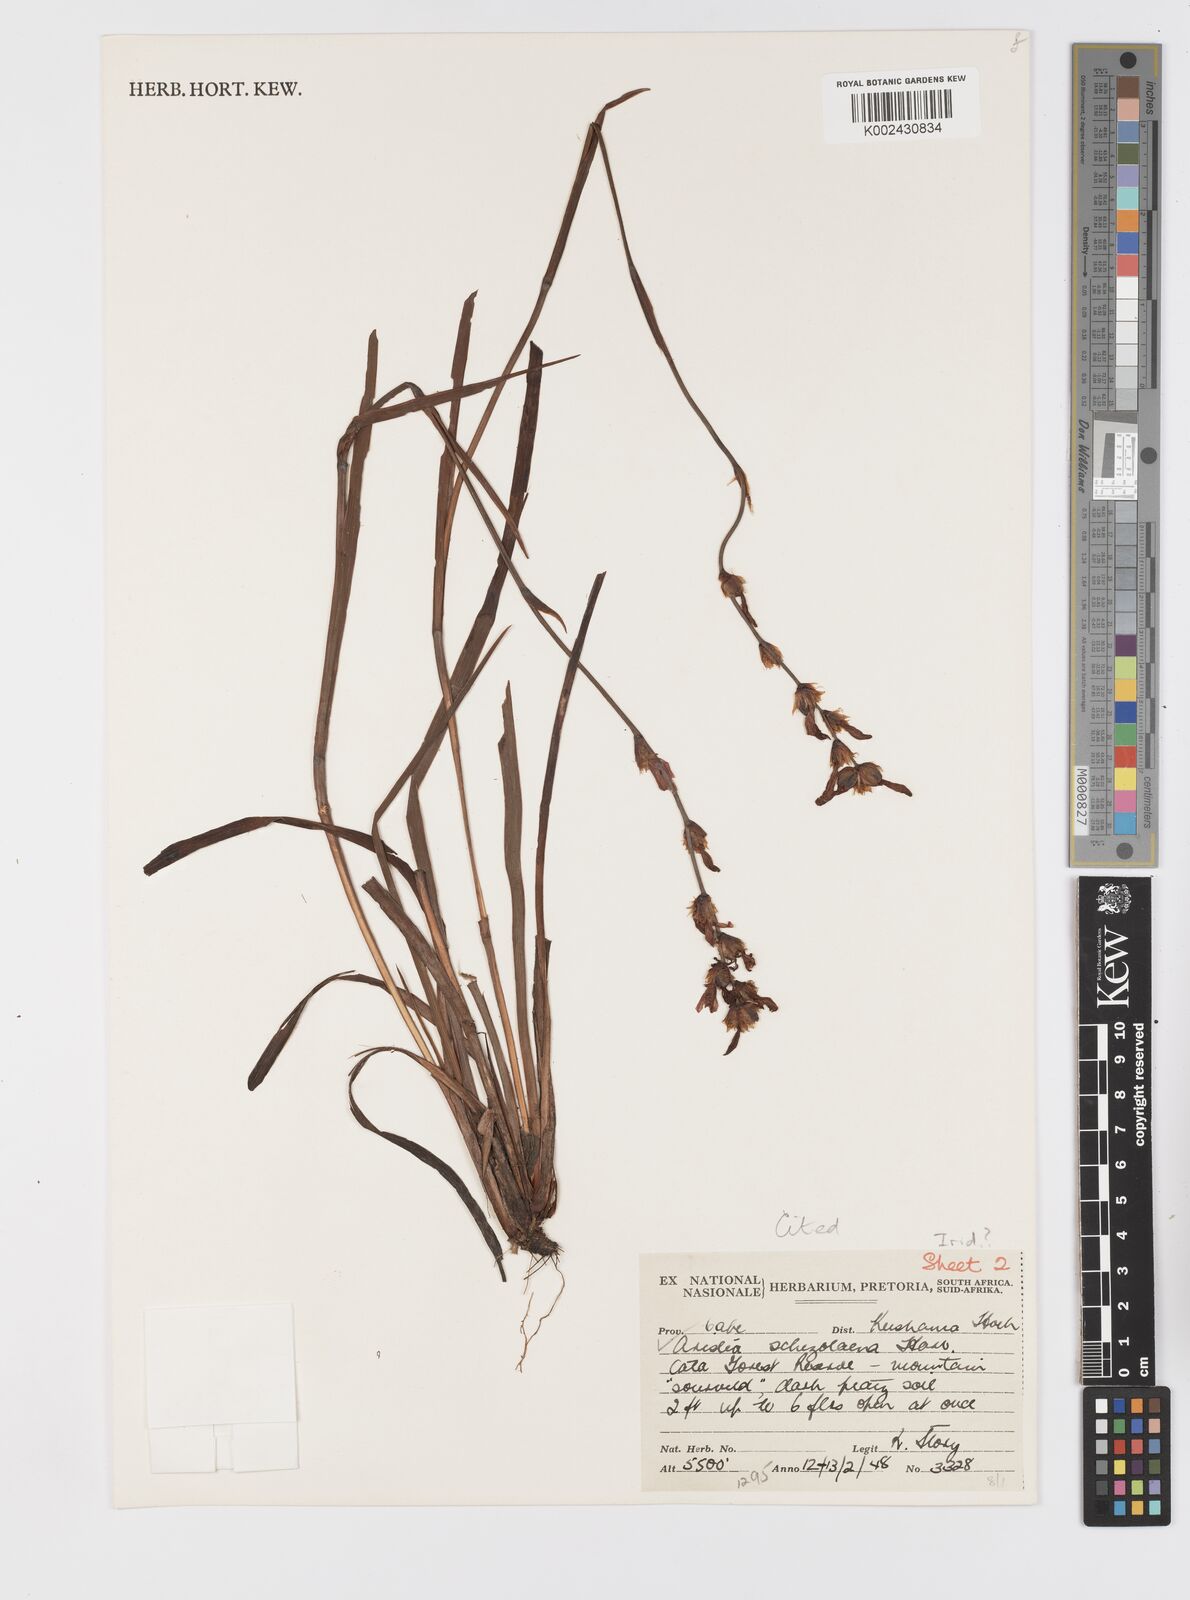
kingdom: Plantae
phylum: Tracheophyta
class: Liliopsida
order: Asparagales
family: Iridaceae
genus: Aristea
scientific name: Aristea schizolaena
